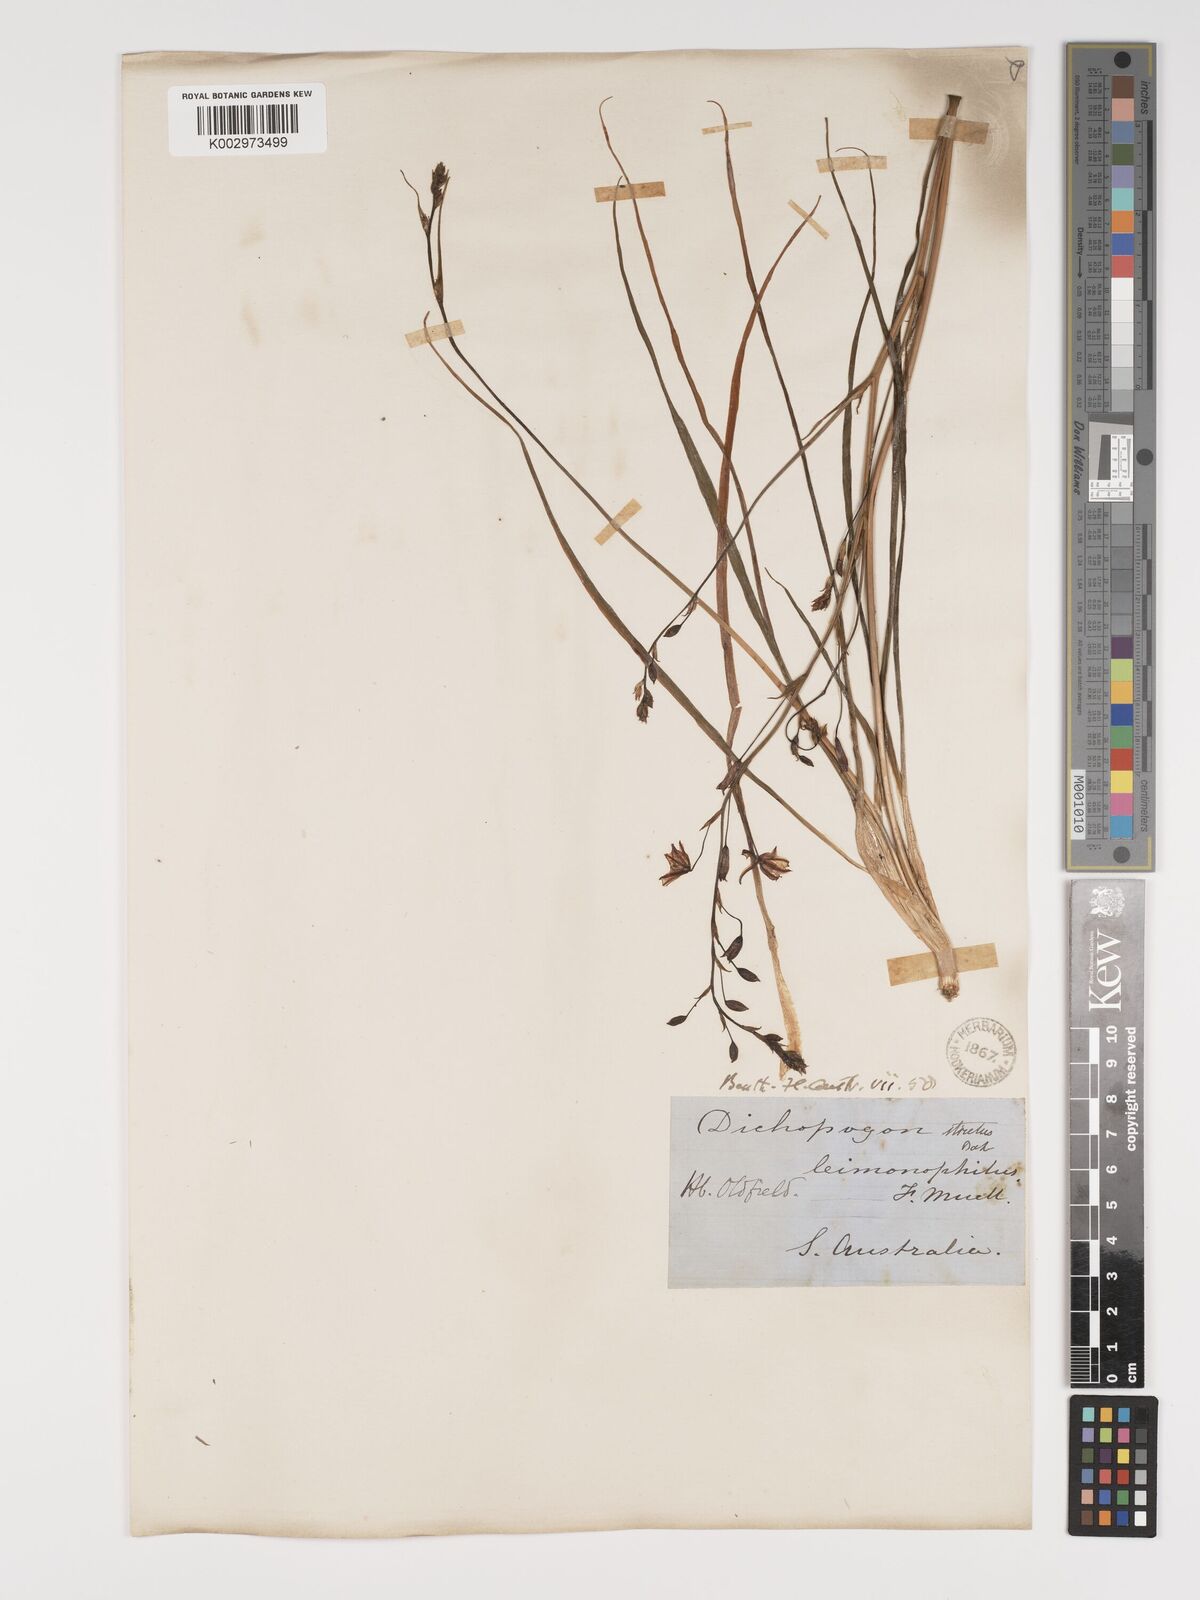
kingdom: Plantae
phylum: Tracheophyta
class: Liliopsida
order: Asparagales
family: Asparagaceae
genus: Arthropodium
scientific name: Arthropodium strictum
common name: Chocolate-lily
